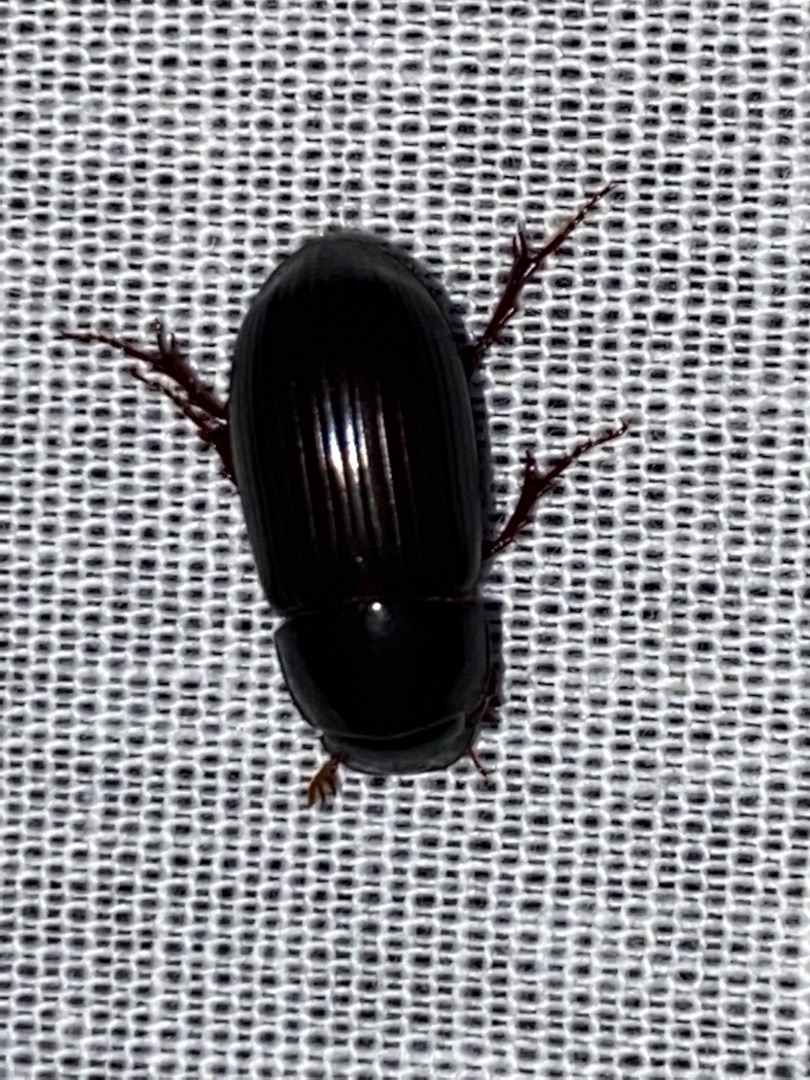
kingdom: Animalia
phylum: Arthropoda
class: Insecta
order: Coleoptera
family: Scarabaeidae
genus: Acrossus
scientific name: Acrossus rufipes
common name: Rødbenet møgbille
